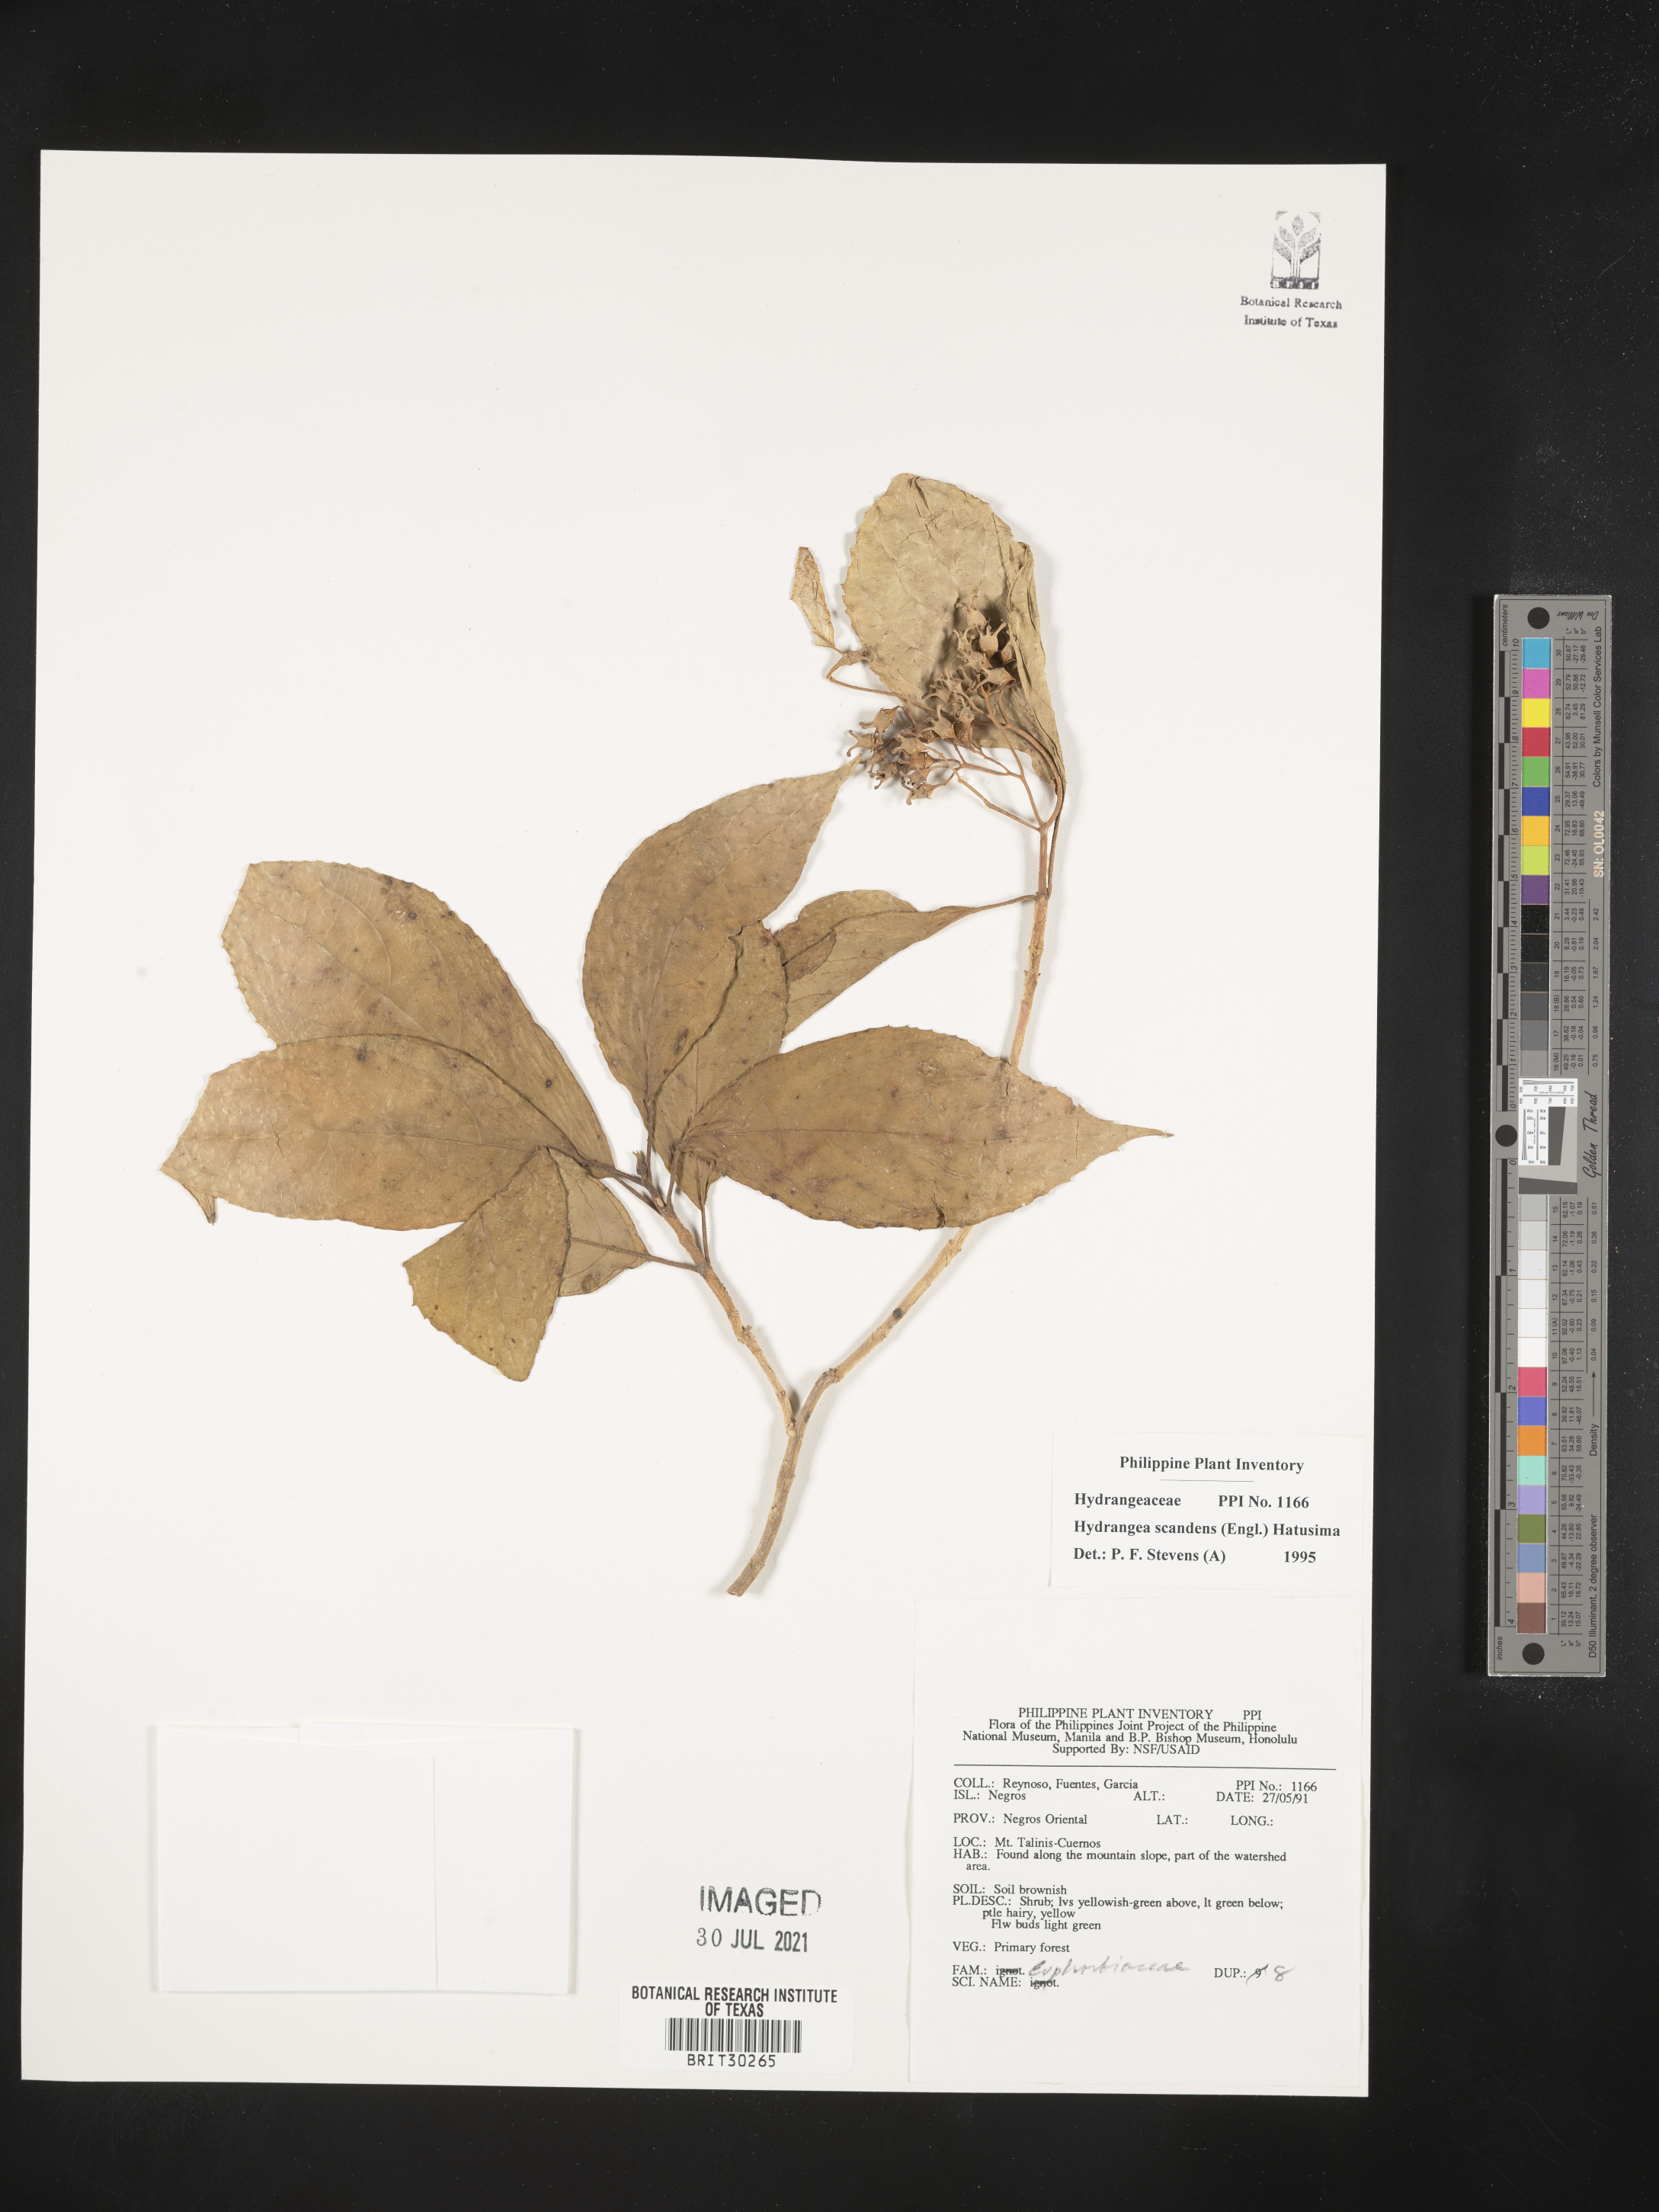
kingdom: Plantae
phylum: Tracheophyta
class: Magnoliopsida
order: Cornales
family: Hydrangeaceae
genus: Hydrangea
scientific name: Hydrangea scandens
